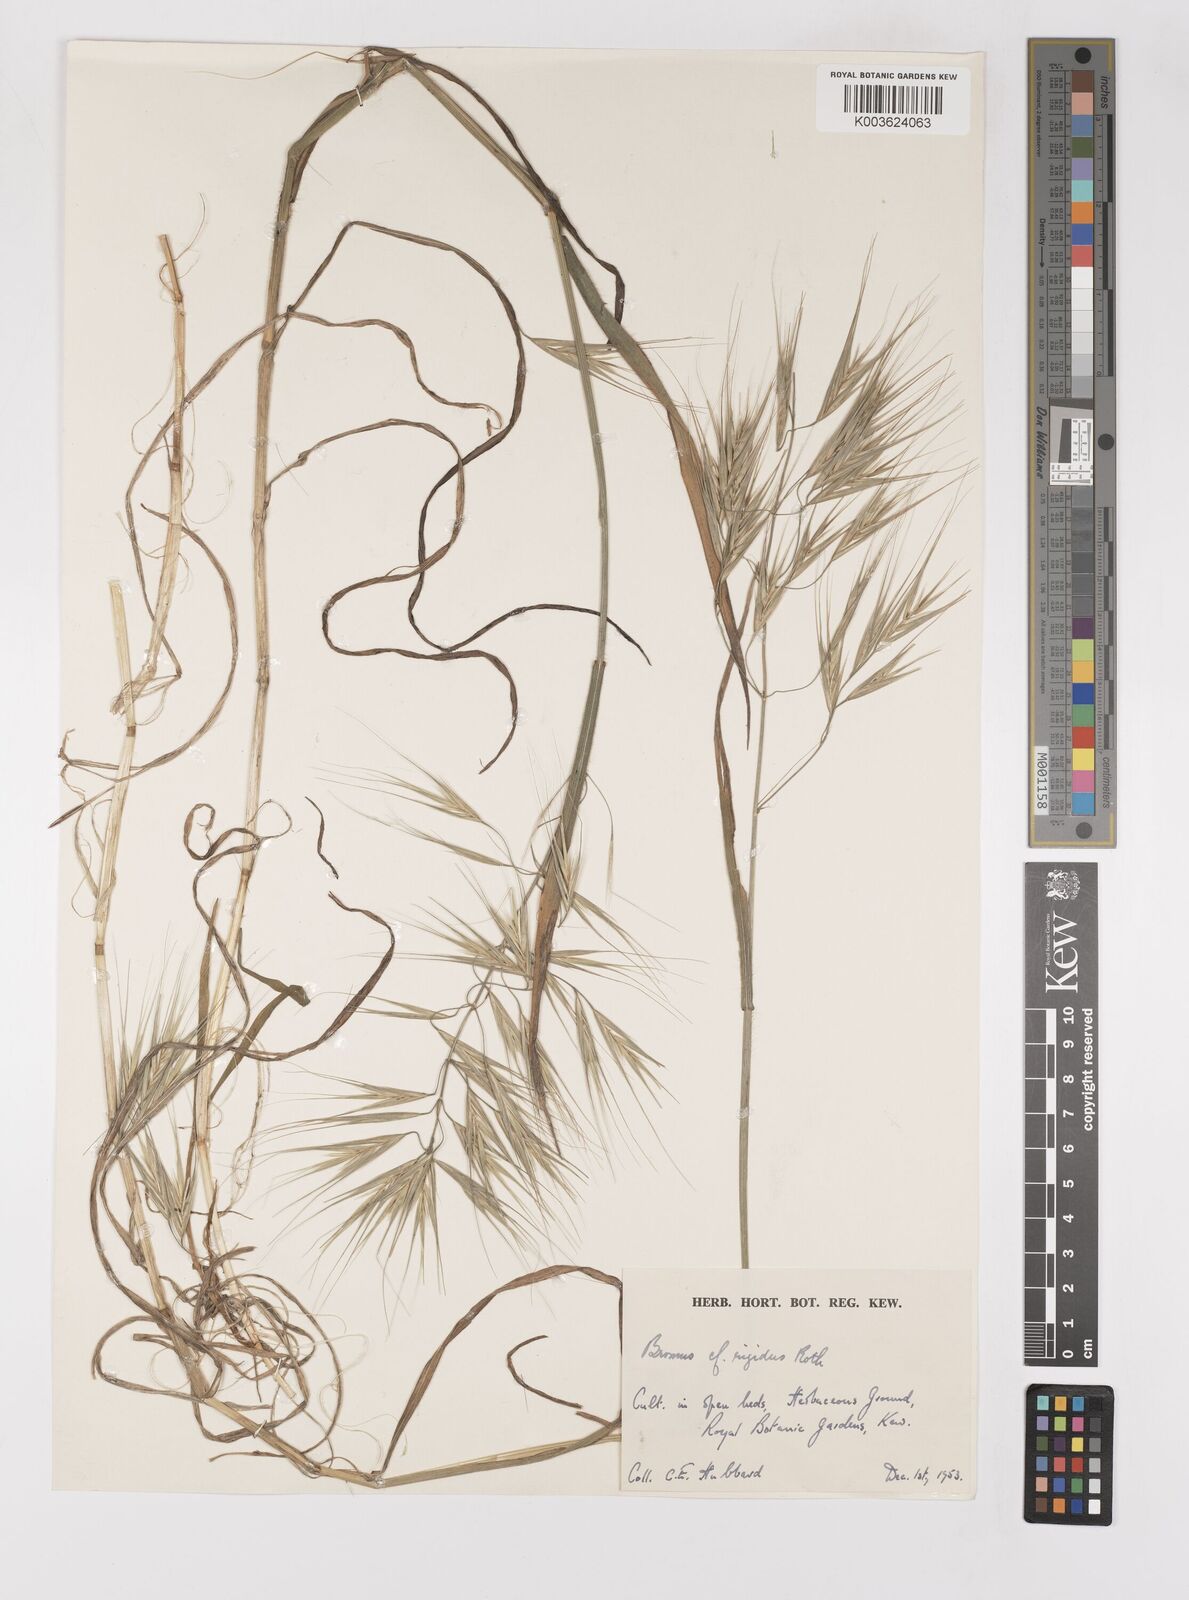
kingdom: Plantae
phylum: Tracheophyta
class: Liliopsida
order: Poales
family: Poaceae
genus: Bromus
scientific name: Bromus diandrus
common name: Ripgut brome
